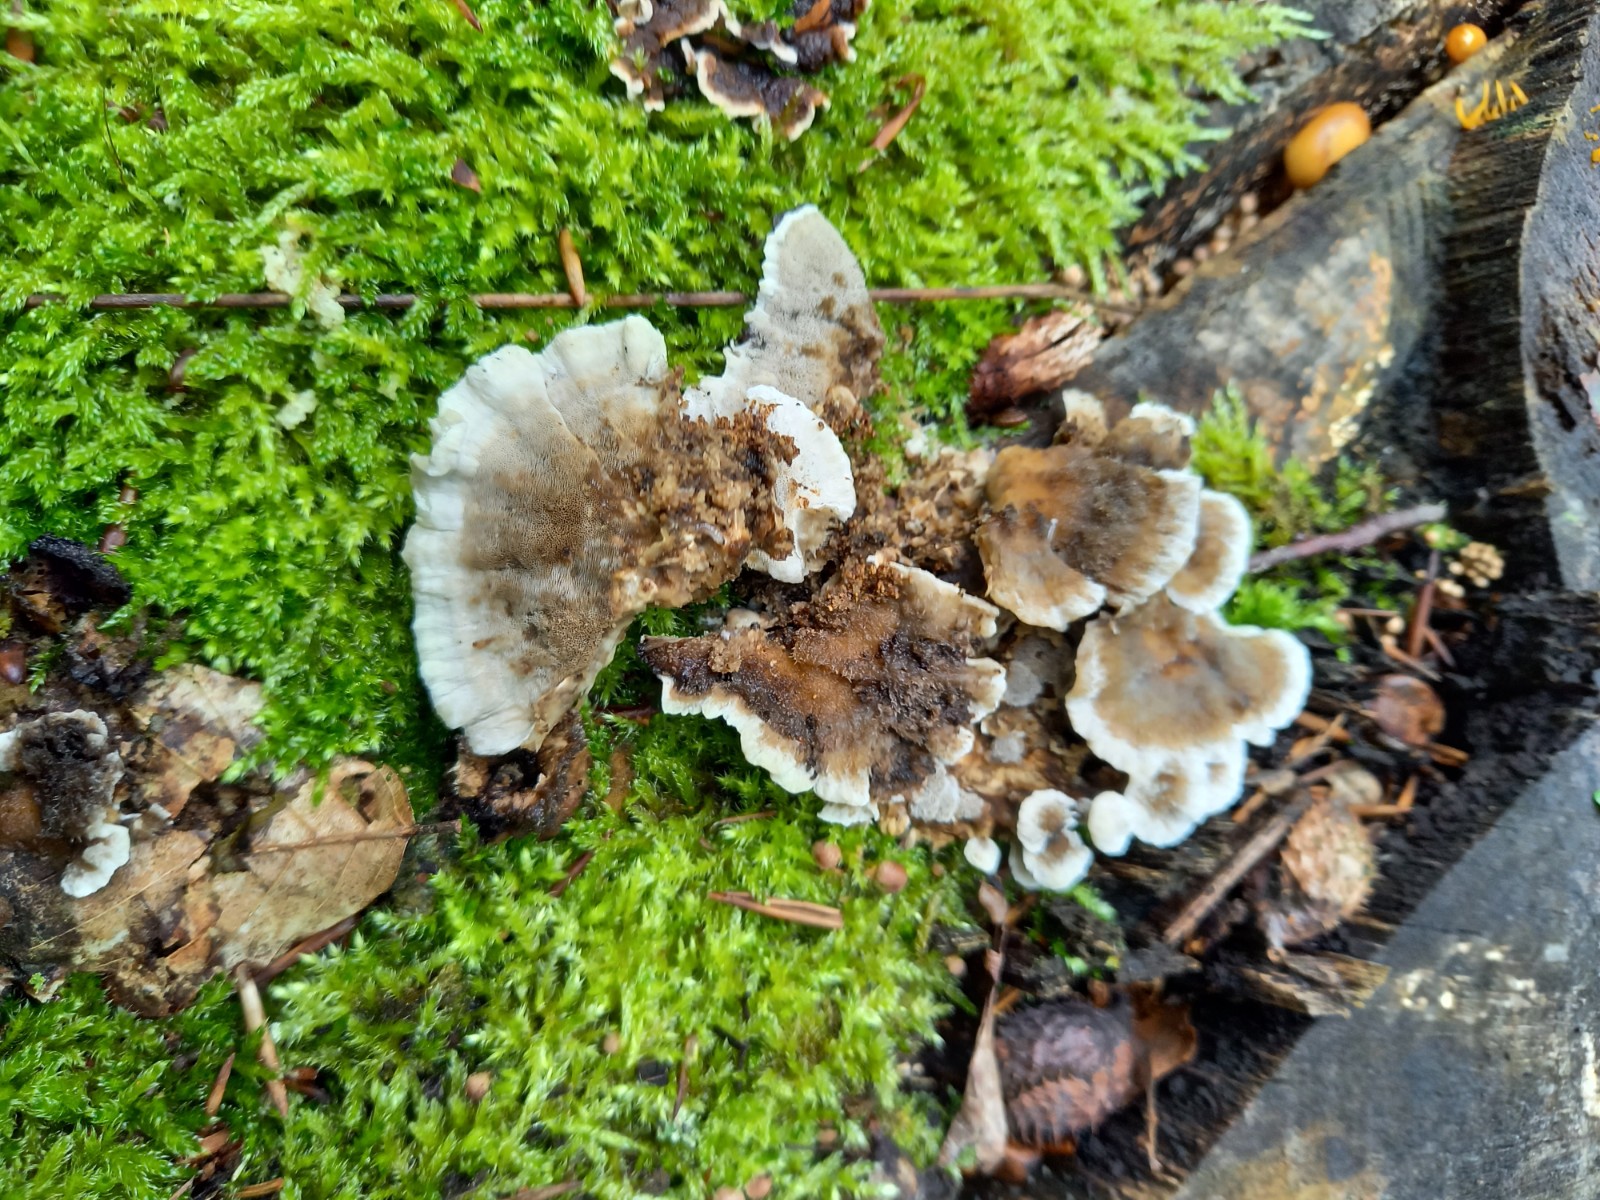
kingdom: Fungi
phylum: Basidiomycota
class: Agaricomycetes
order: Polyporales
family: Phanerochaetaceae
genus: Bjerkandera
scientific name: Bjerkandera adusta
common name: sveden sodporesvamp
